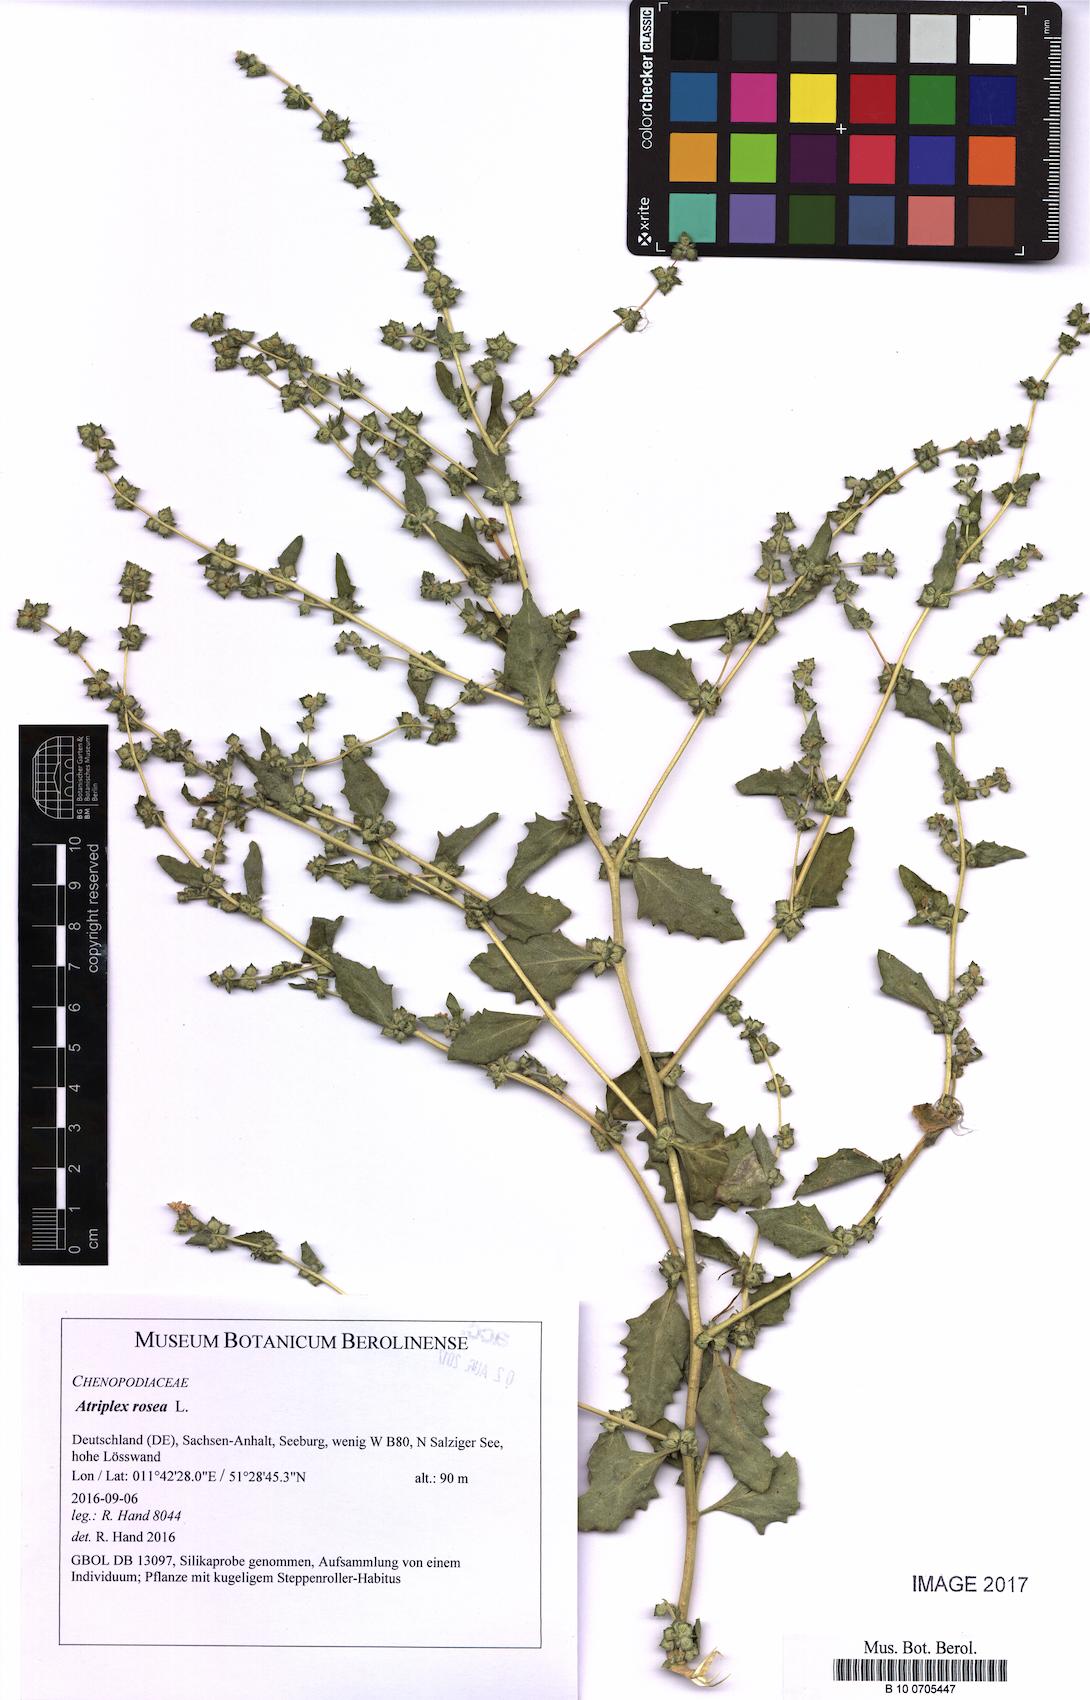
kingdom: Plantae
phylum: Tracheophyta
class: Magnoliopsida
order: Caryophyllales
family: Amaranthaceae
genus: Atriplex
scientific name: Atriplex rosea
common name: Tumbling saltweed
